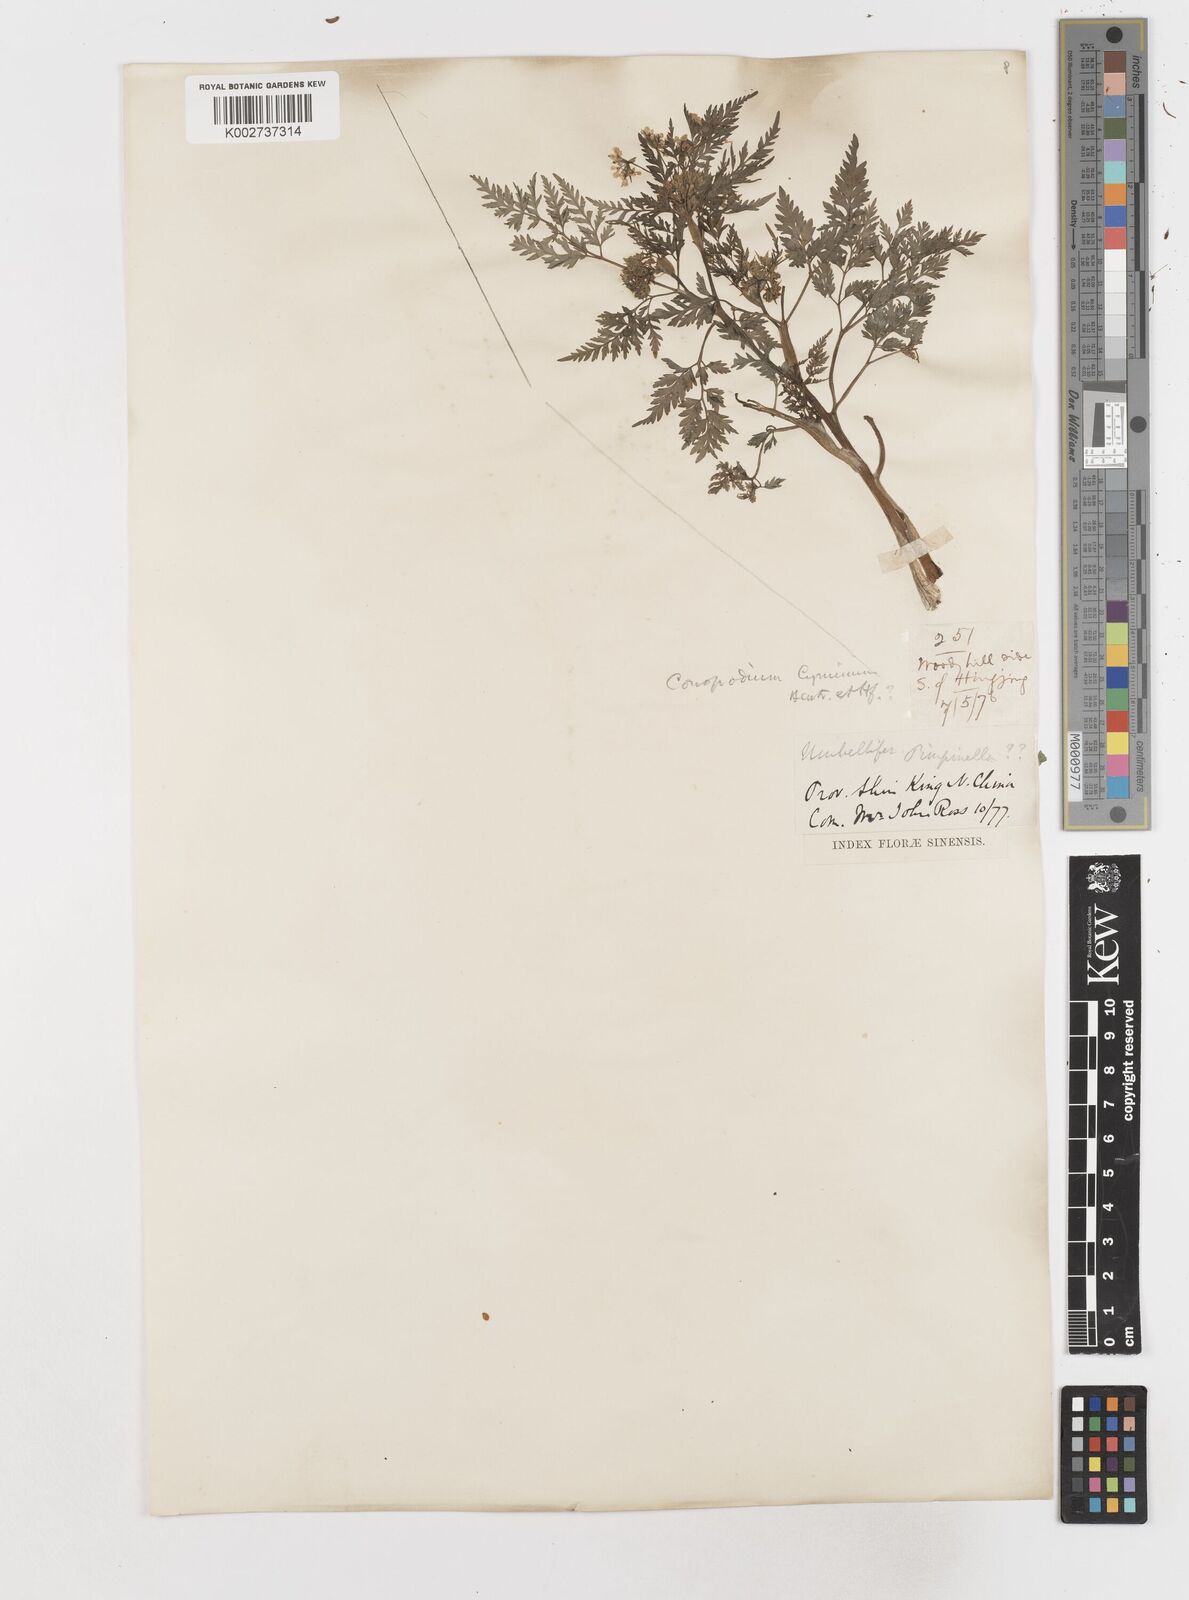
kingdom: Plantae
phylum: Tracheophyta
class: Magnoliopsida
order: Apiales
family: Apiaceae
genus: Sphallerocarpus
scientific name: Sphallerocarpus gracilis
